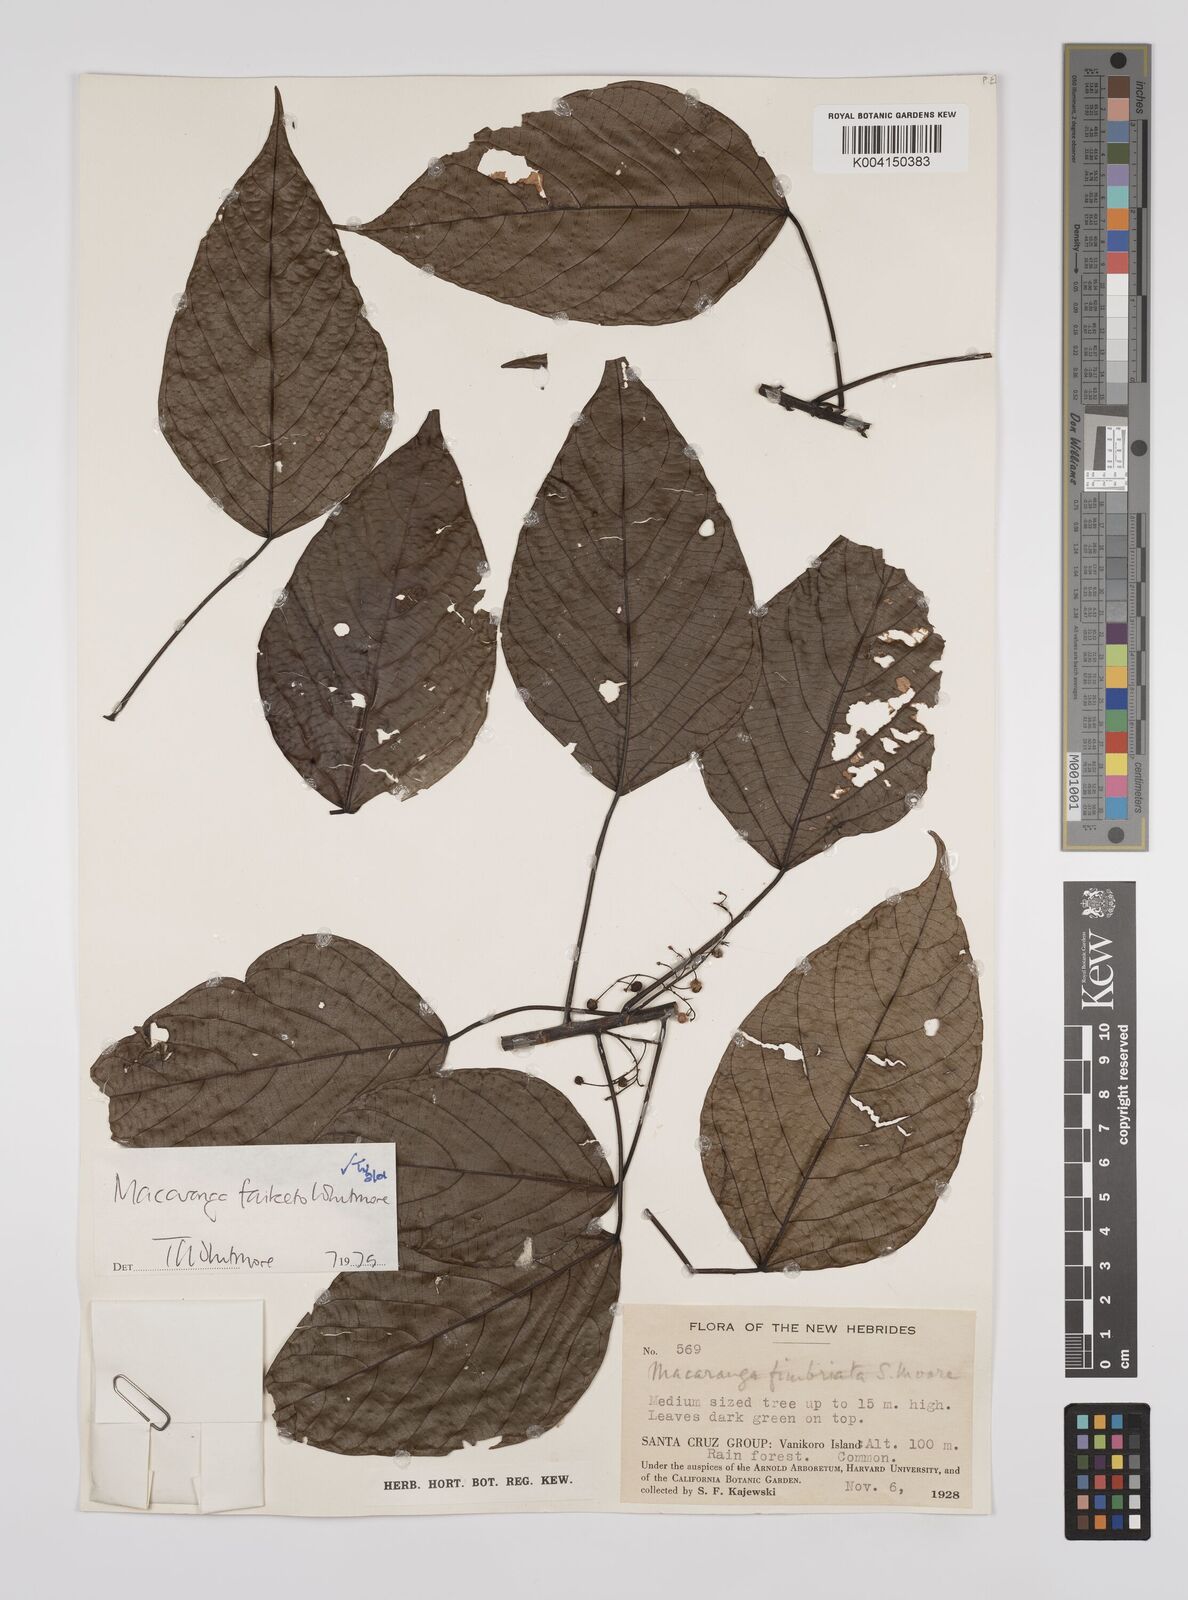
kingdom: Plantae
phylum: Tracheophyta
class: Magnoliopsida
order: Malpighiales
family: Euphorbiaceae
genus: Macaranga
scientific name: Macaranga faiketo
